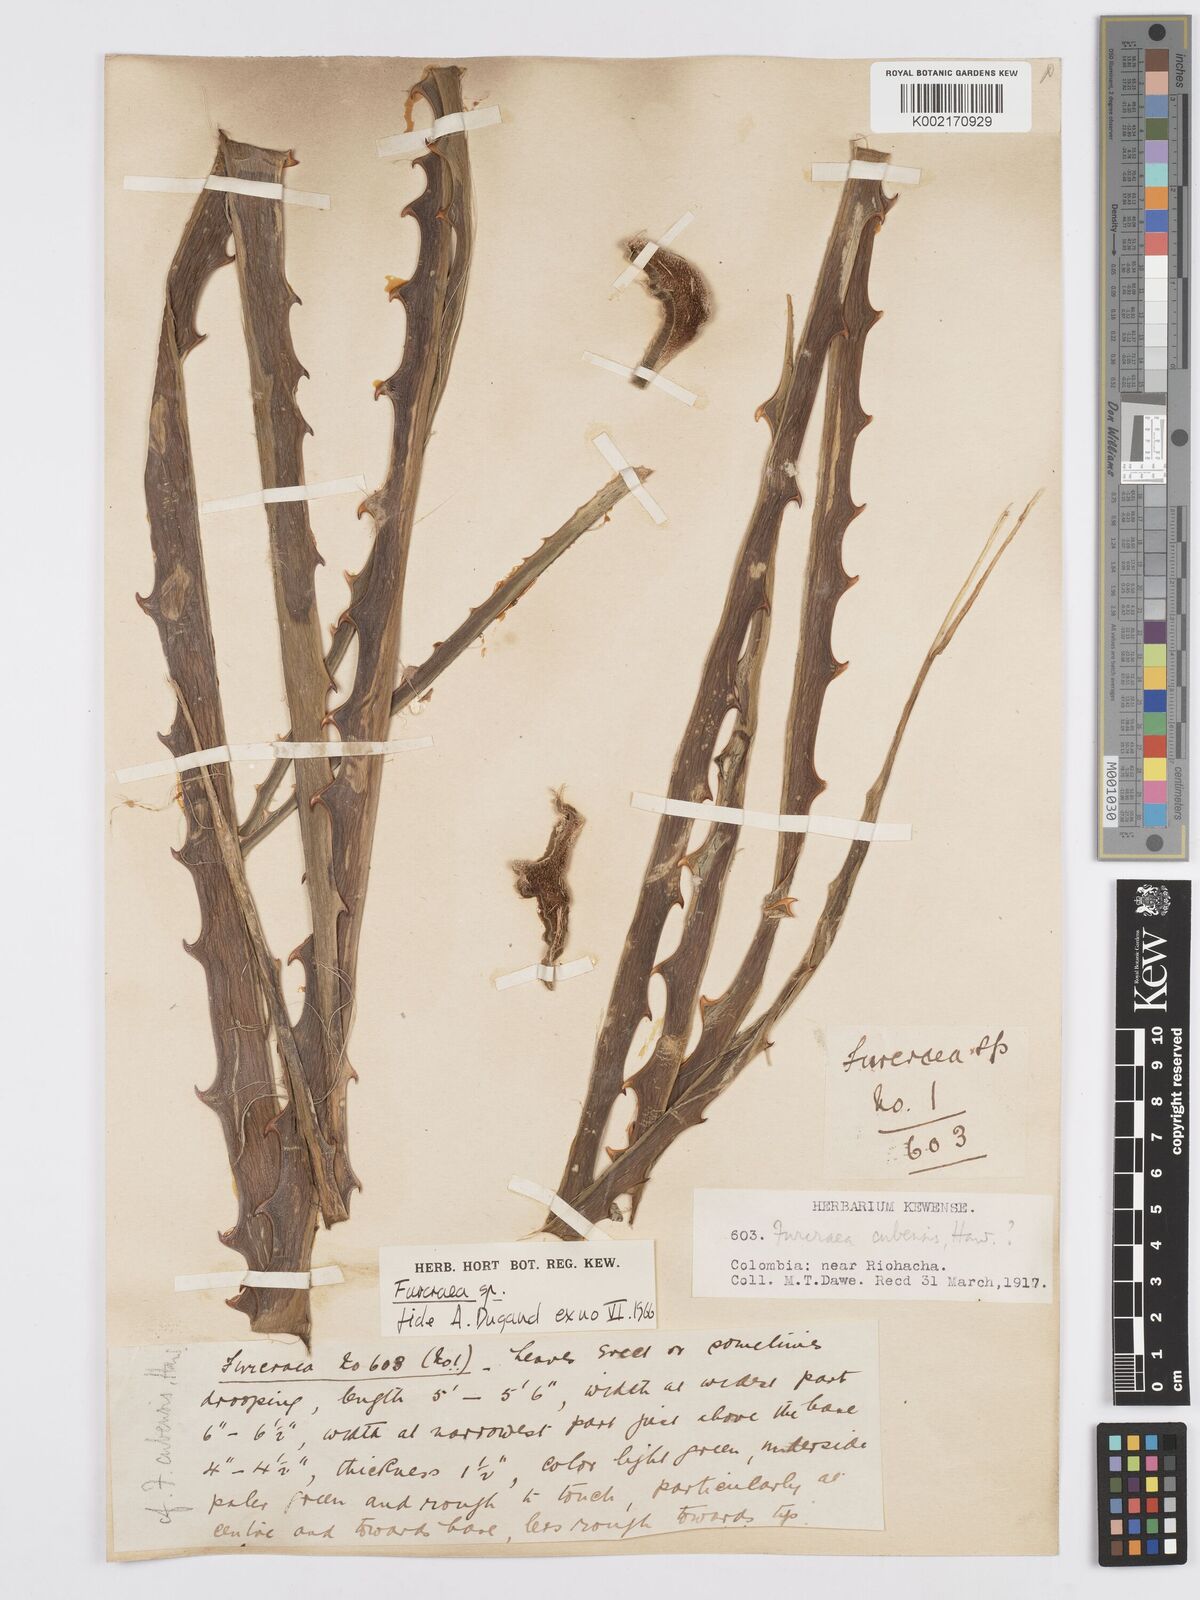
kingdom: Plantae
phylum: Tracheophyta
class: Liliopsida
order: Asparagales
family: Asparagaceae
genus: Furcraea
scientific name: Furcraea
